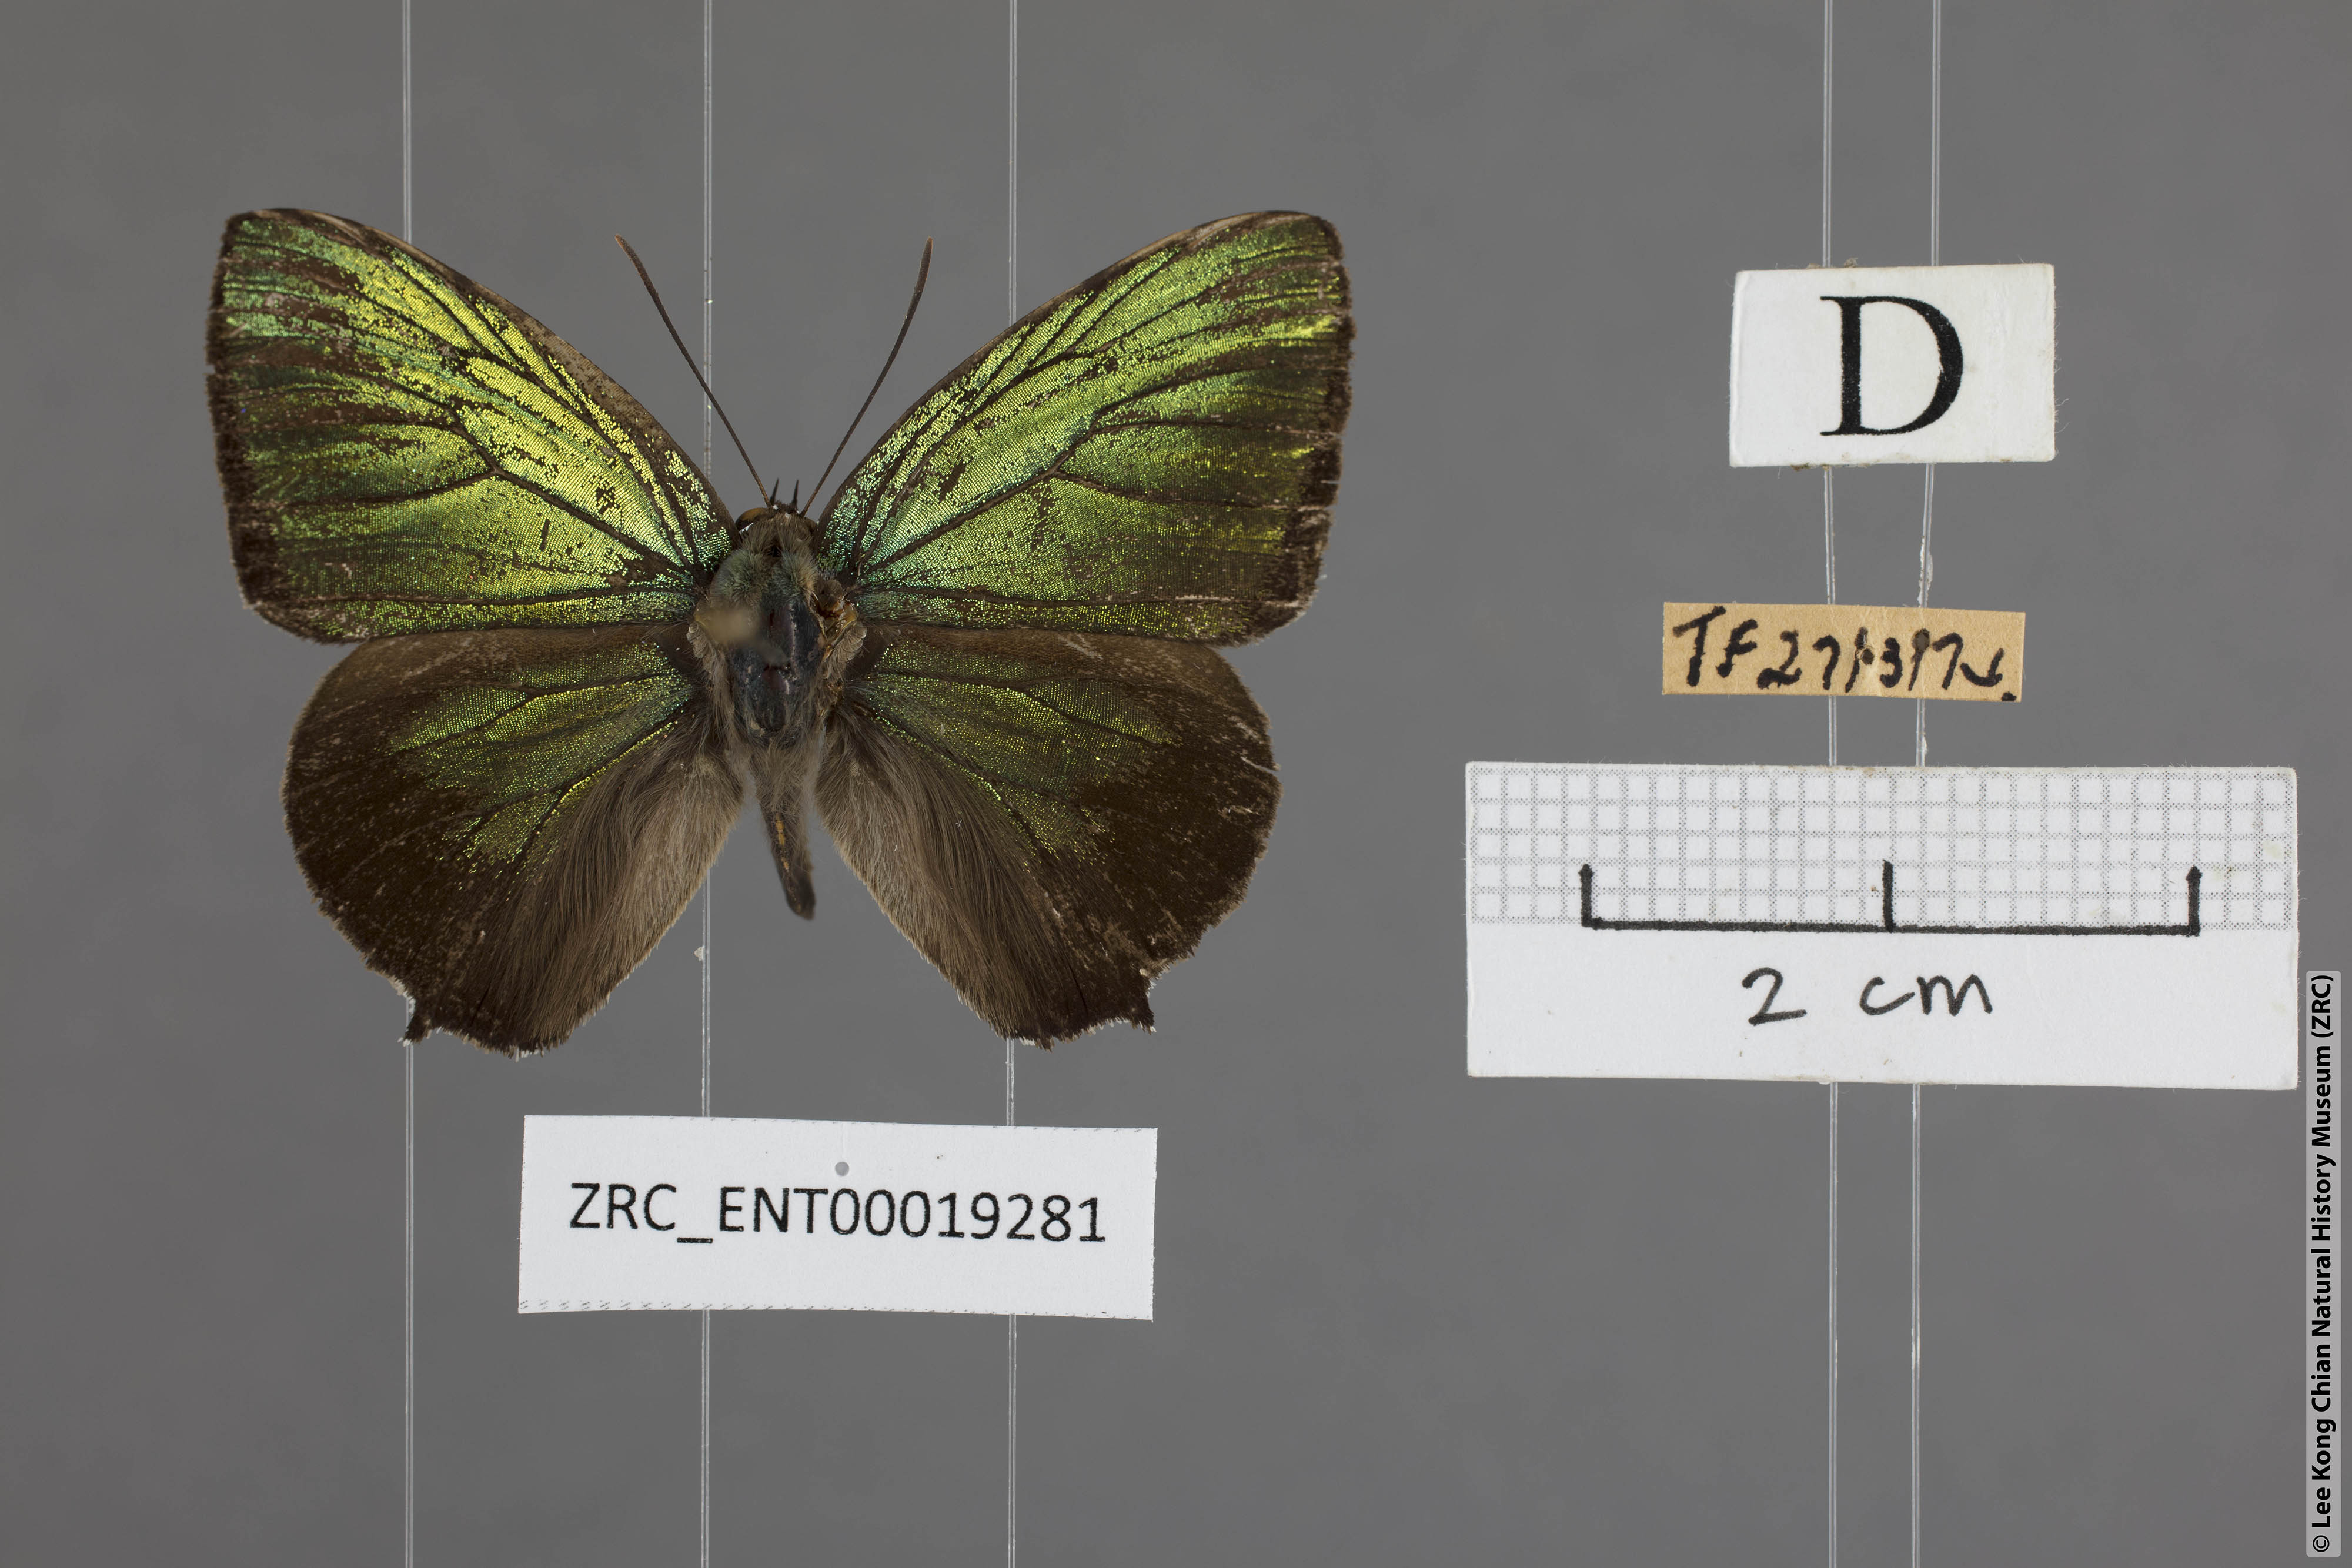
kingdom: Animalia
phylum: Arthropoda
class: Insecta
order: Lepidoptera
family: Lycaenidae
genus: Arhopala
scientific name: Arhopala aurea
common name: Long-celled oakblue
